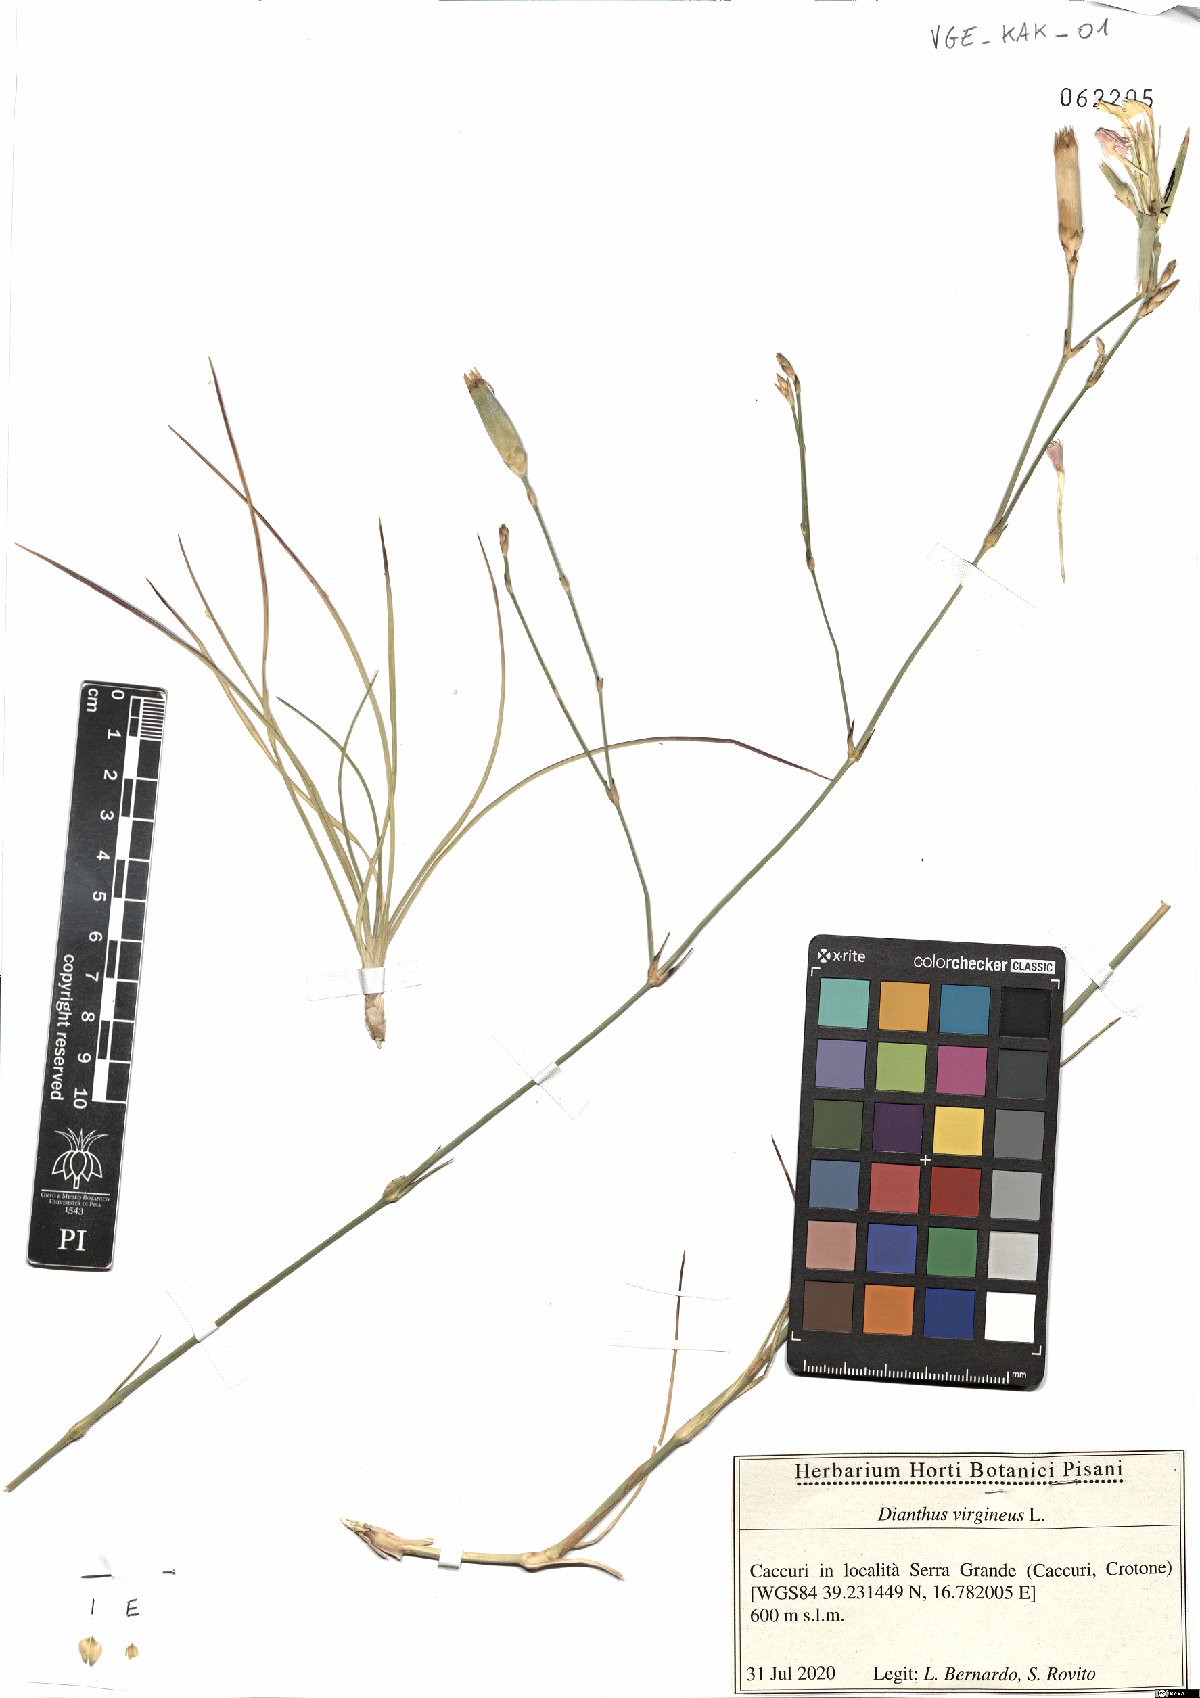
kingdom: Plantae
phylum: Tracheophyta
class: Magnoliopsida
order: Caryophyllales
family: Caryophyllaceae
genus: Dianthus
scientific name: Dianthus virgineus
